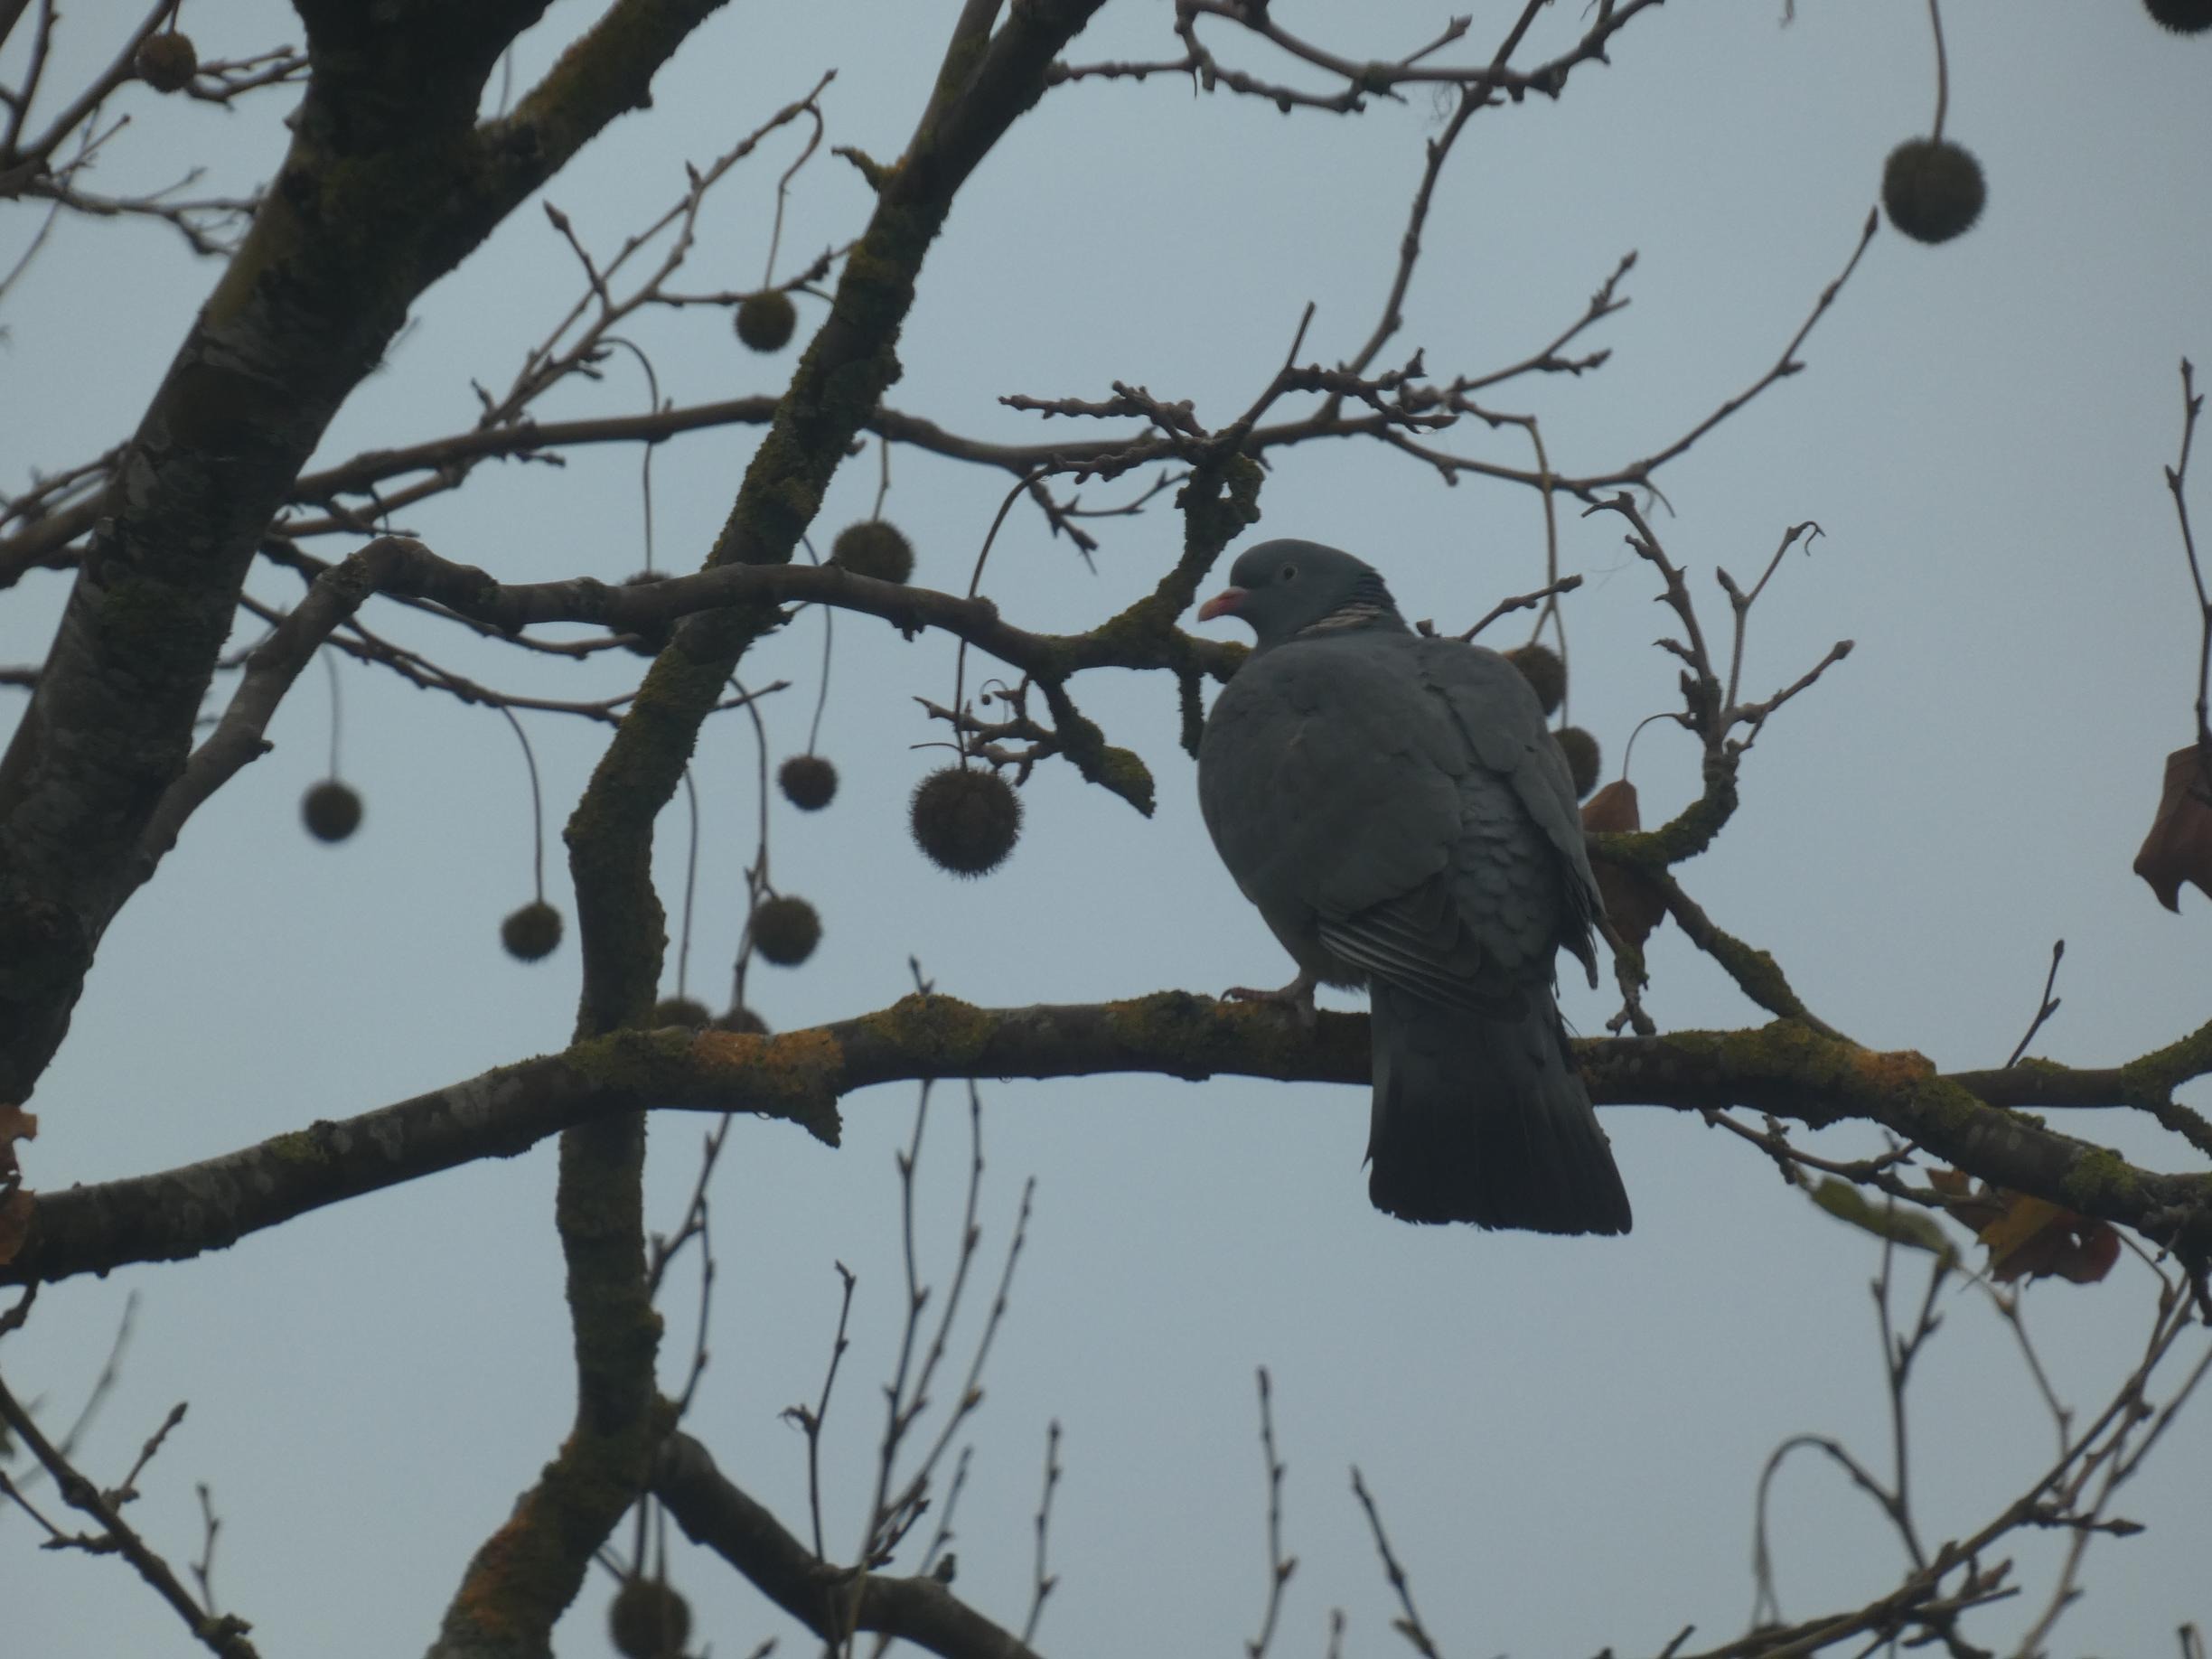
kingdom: Animalia
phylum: Chordata
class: Aves
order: Columbiformes
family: Columbidae
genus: Columba
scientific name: Columba palumbus
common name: Ringdue
